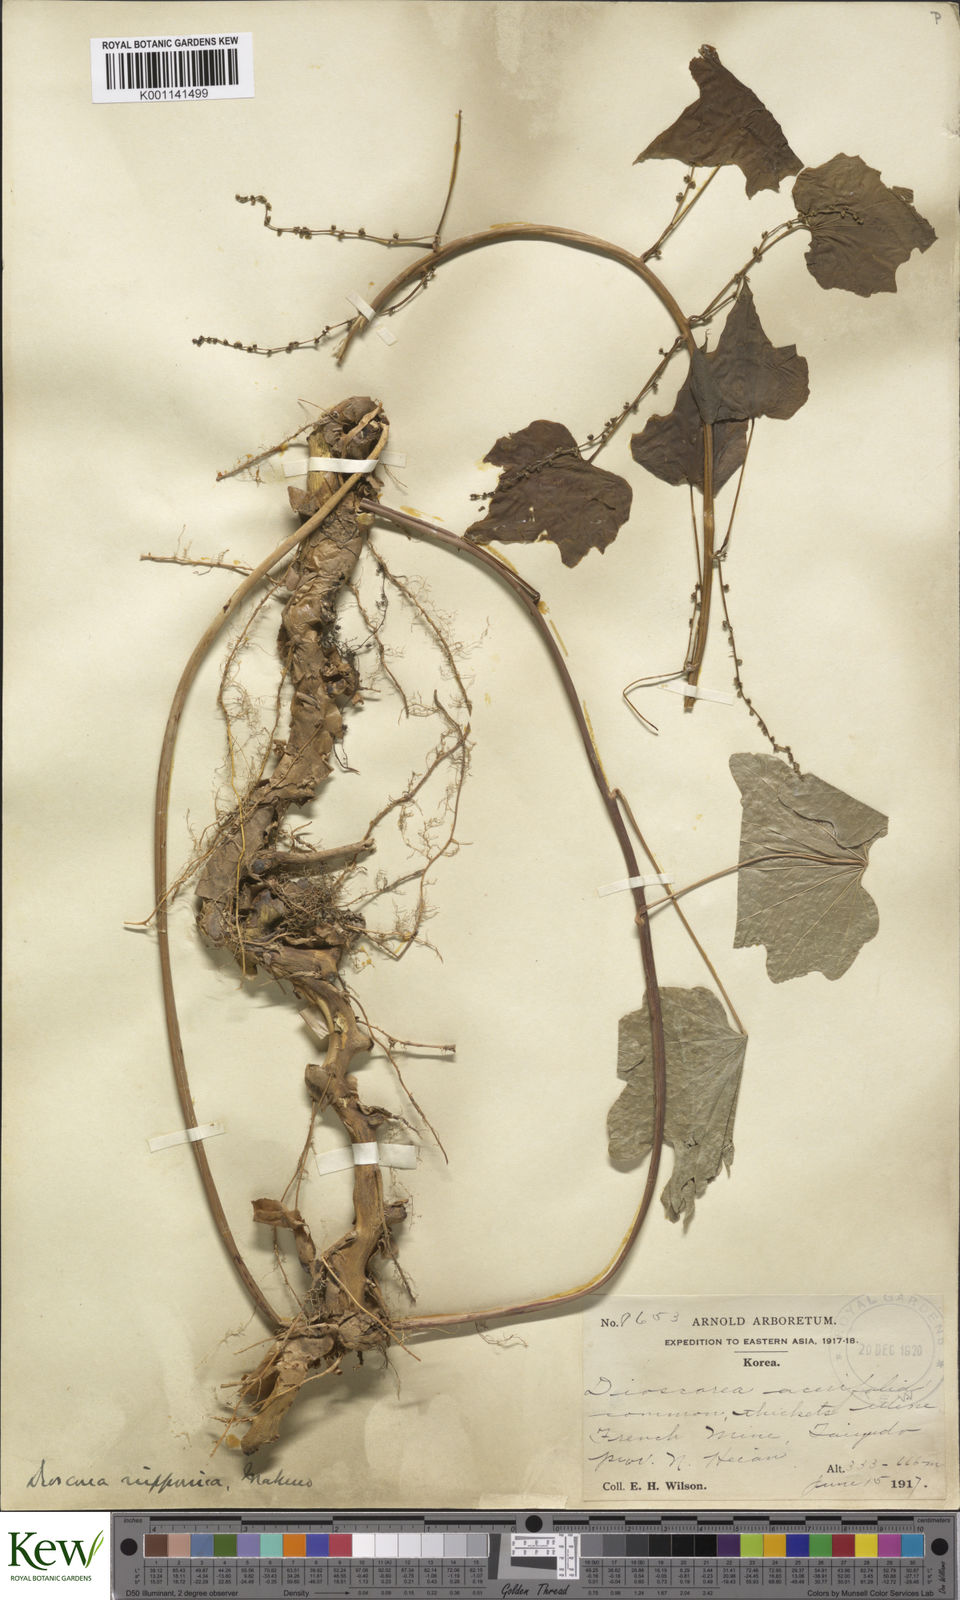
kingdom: Plantae
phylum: Tracheophyta
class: Liliopsida
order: Dioscoreales
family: Dioscoreaceae
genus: Dioscorea
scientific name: Dioscorea nipponica
